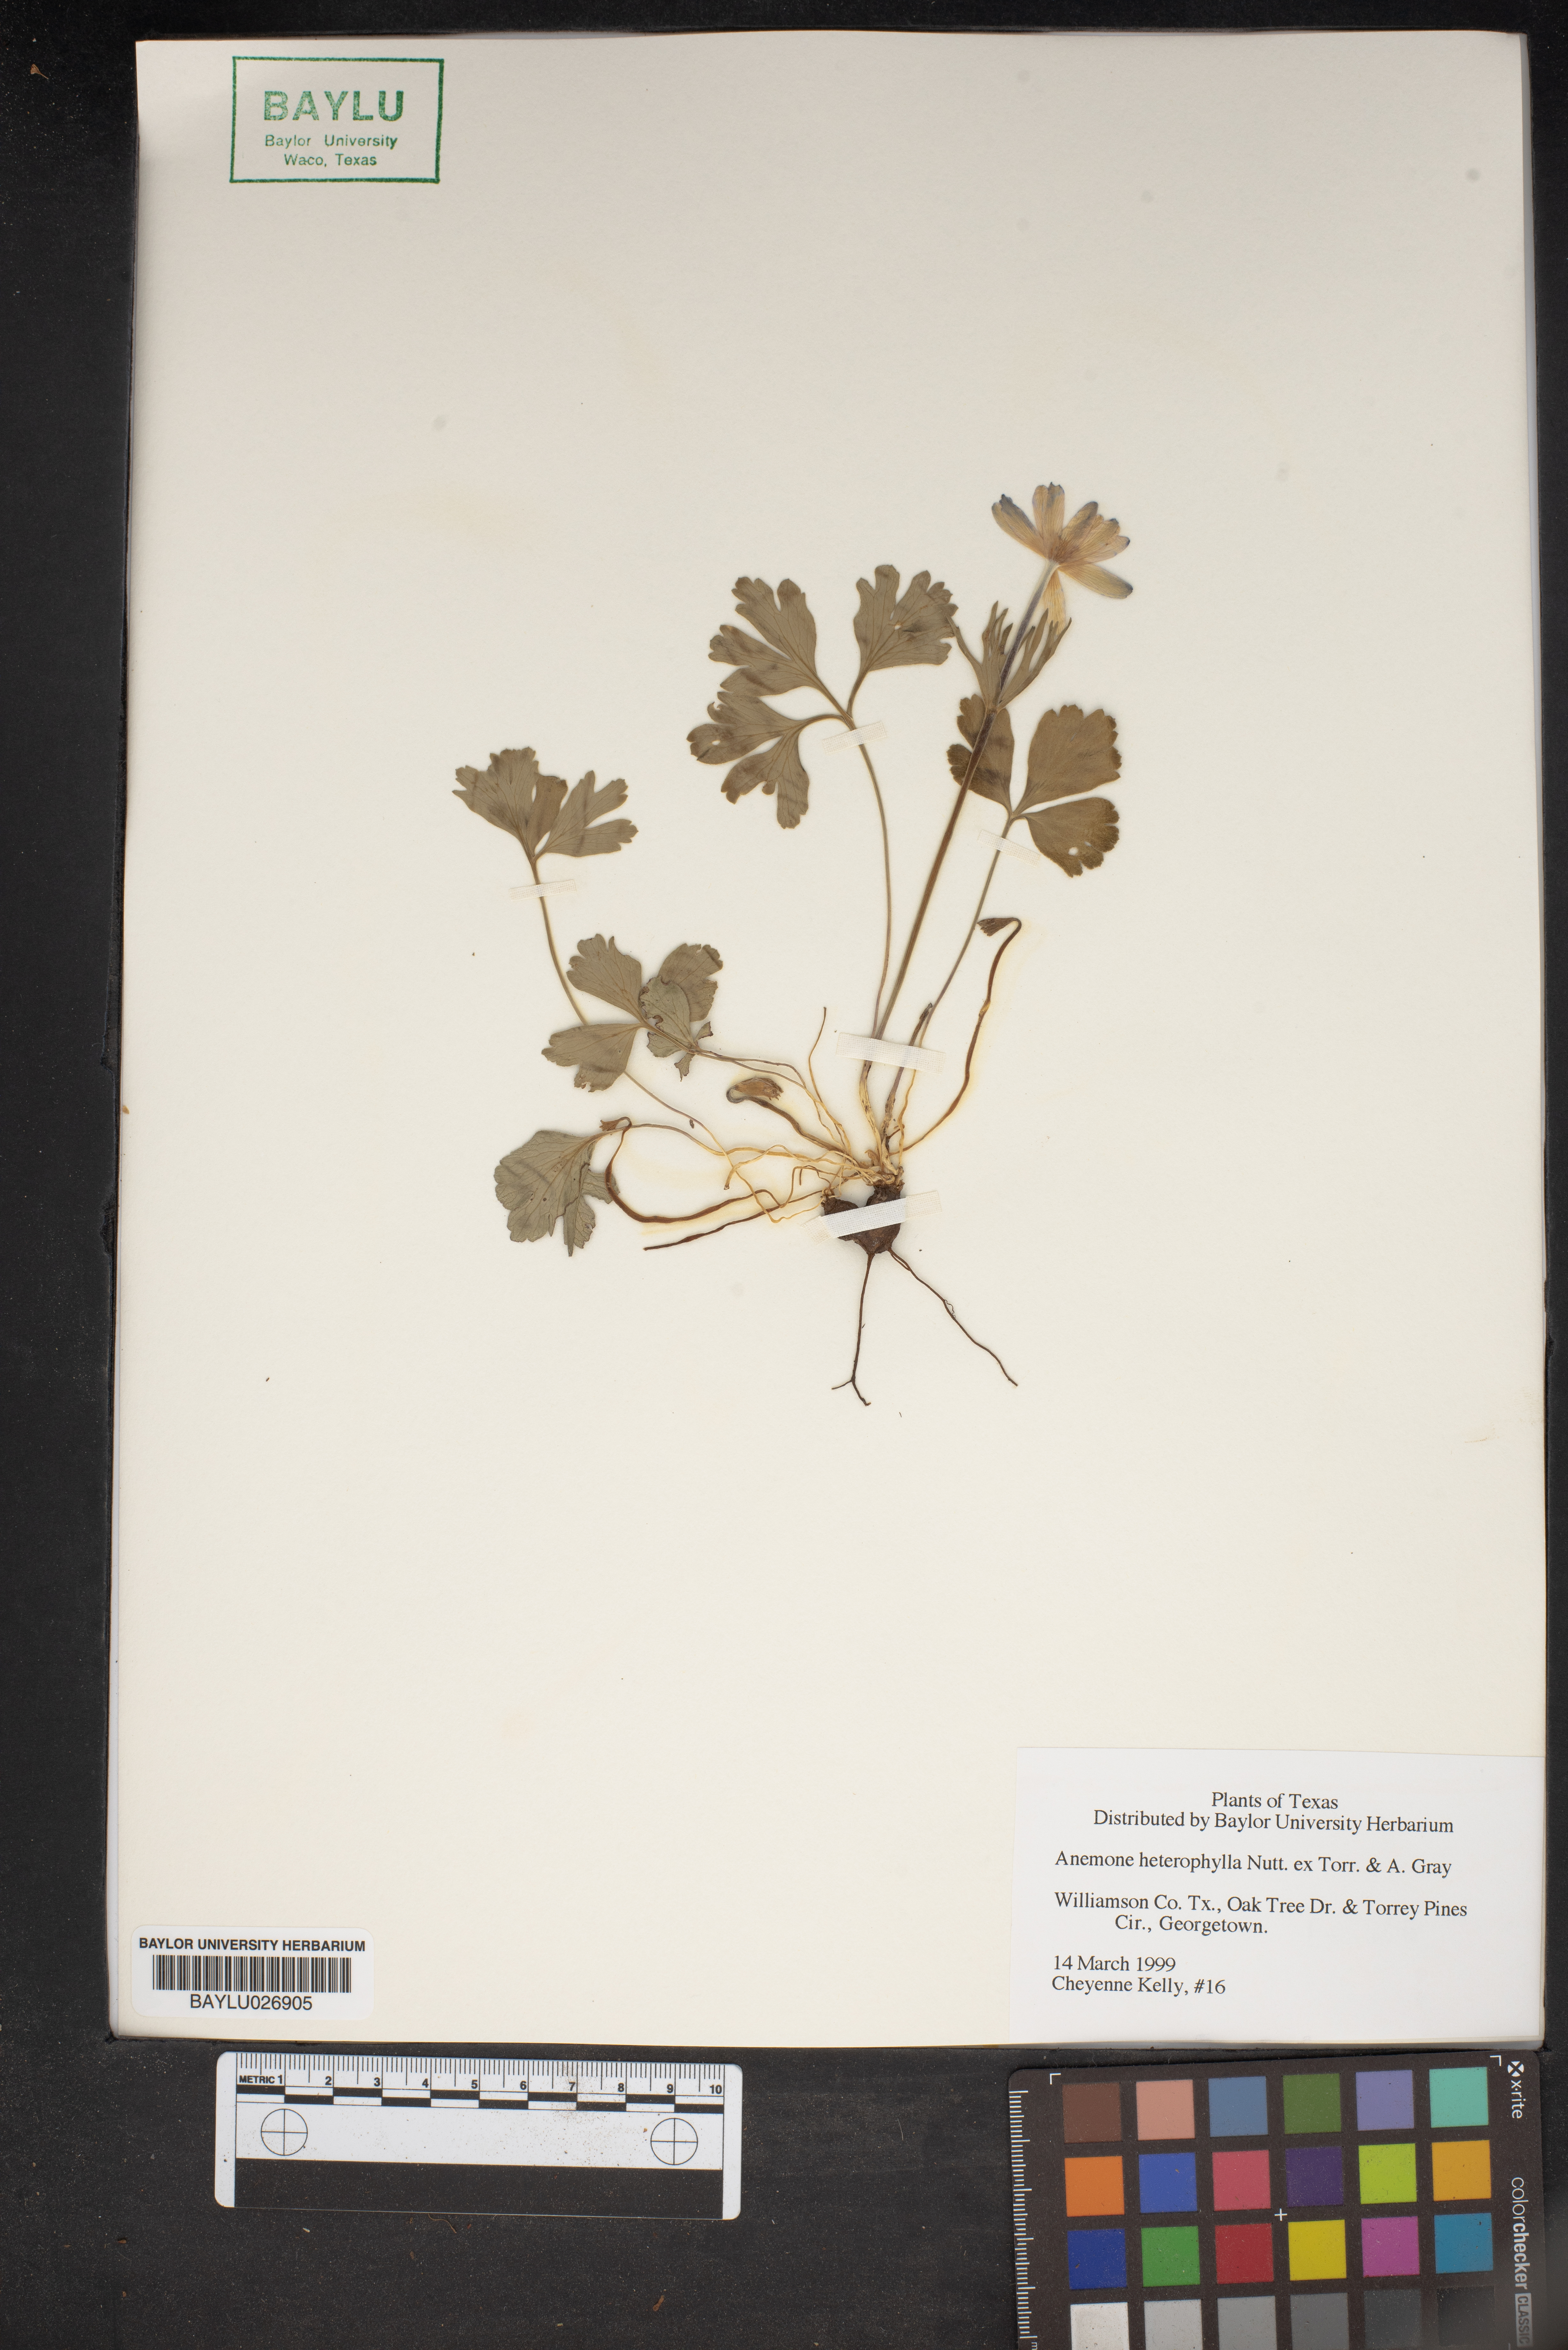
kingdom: Plantae
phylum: Tracheophyta
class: Magnoliopsida
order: Ranunculales
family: Ranunculaceae
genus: Anemone
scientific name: Anemone heterophylla
